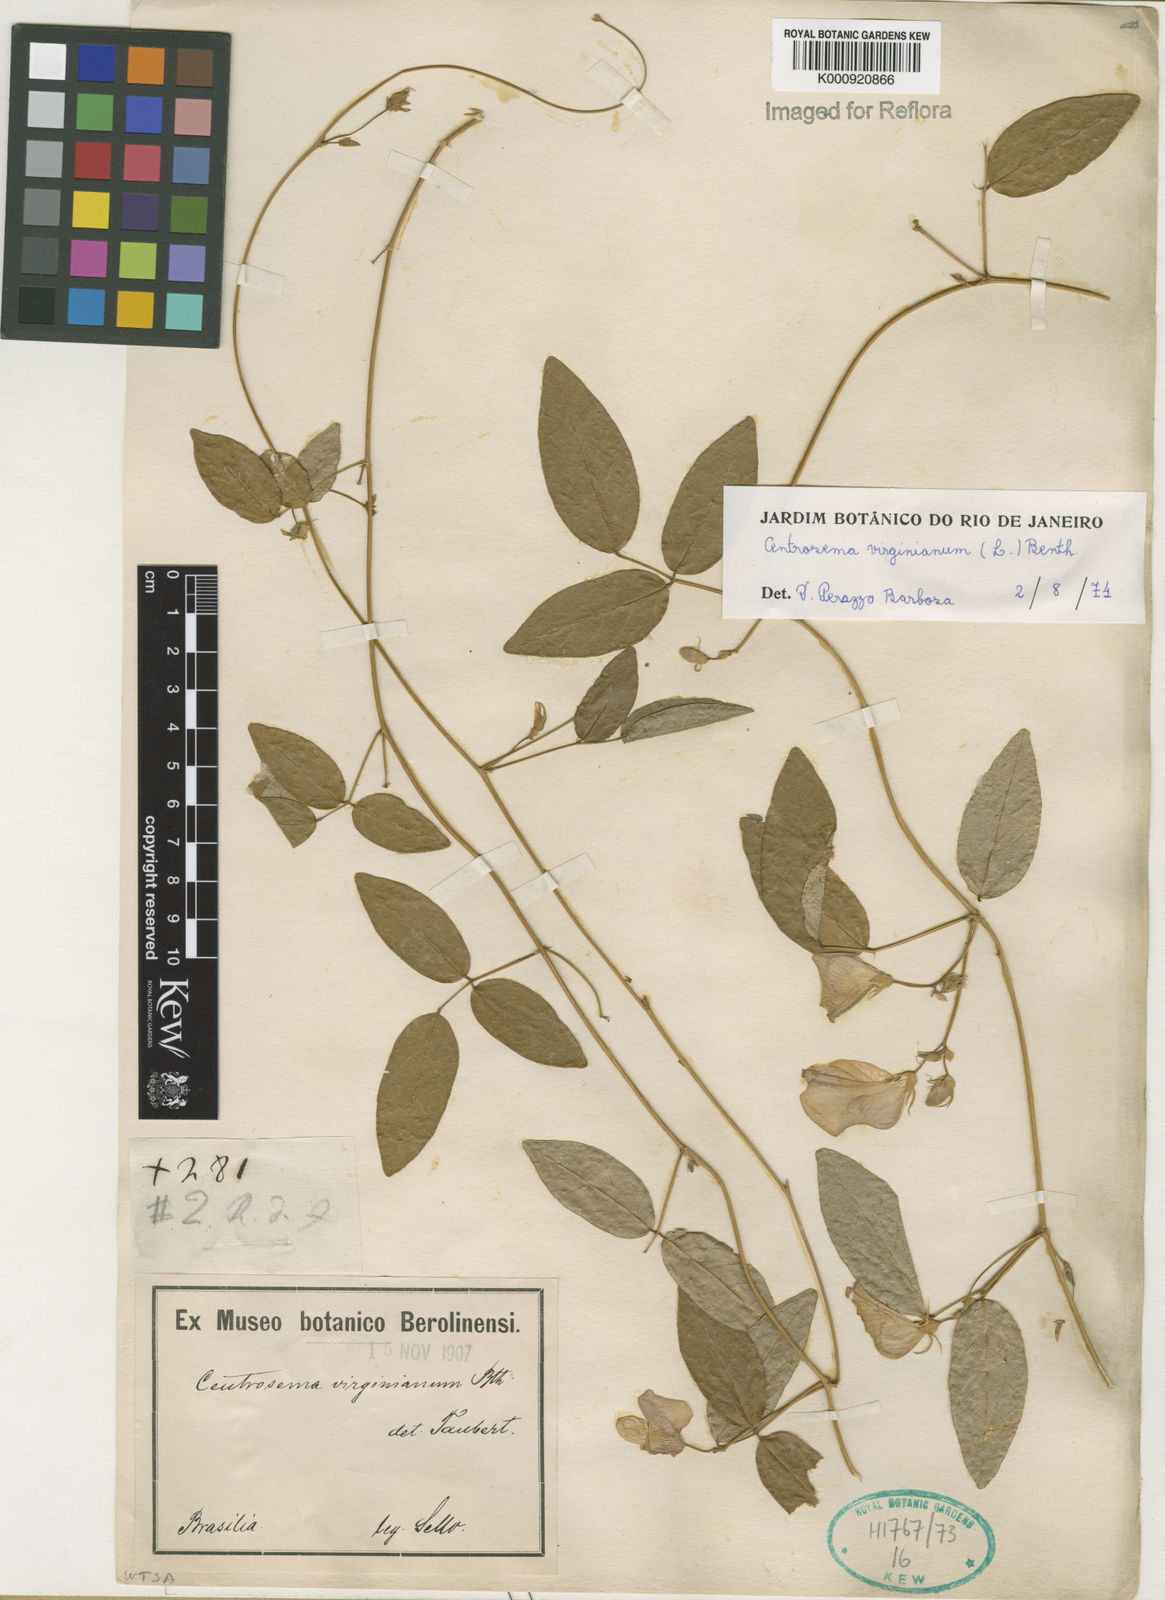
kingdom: Plantae
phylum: Tracheophyta
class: Magnoliopsida
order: Fabales
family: Fabaceae
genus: Centrosema
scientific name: Centrosema virginianum
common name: Butterfly-pea
